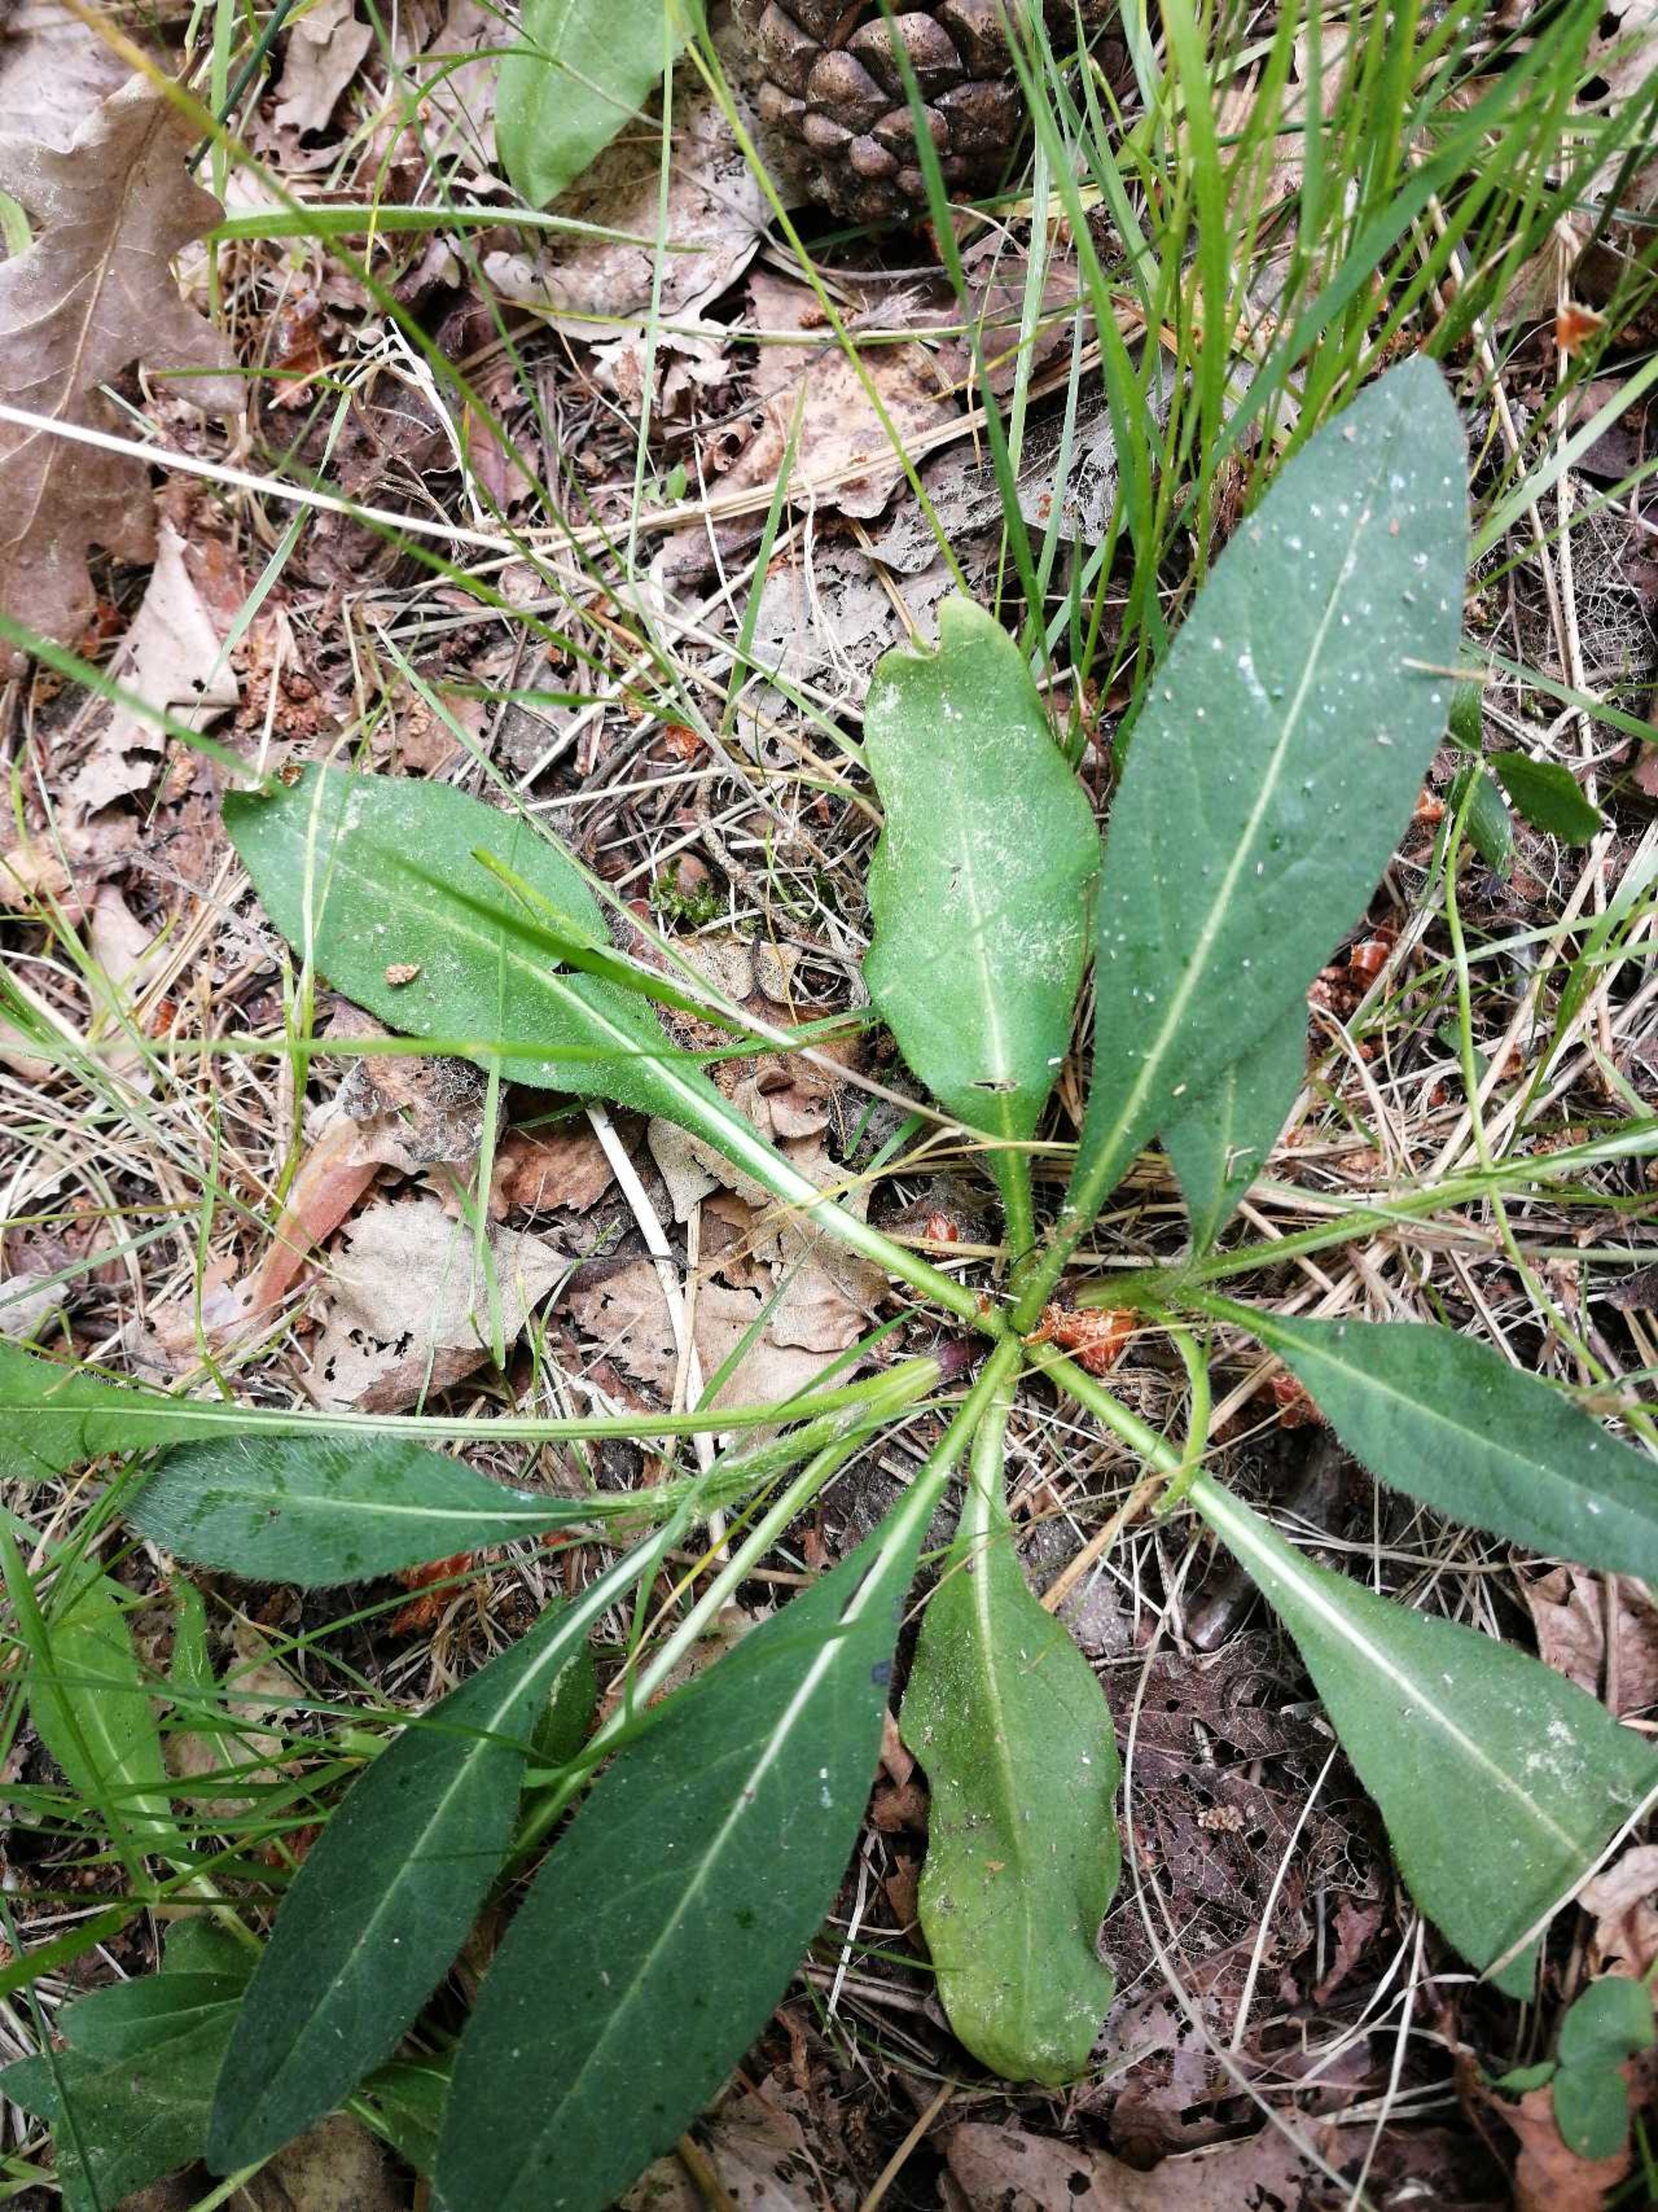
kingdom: Plantae
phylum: Tracheophyta
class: Magnoliopsida
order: Dipsacales
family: Caprifoliaceae
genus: Succisa
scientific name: Succisa pratensis
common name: Djævelsbid
